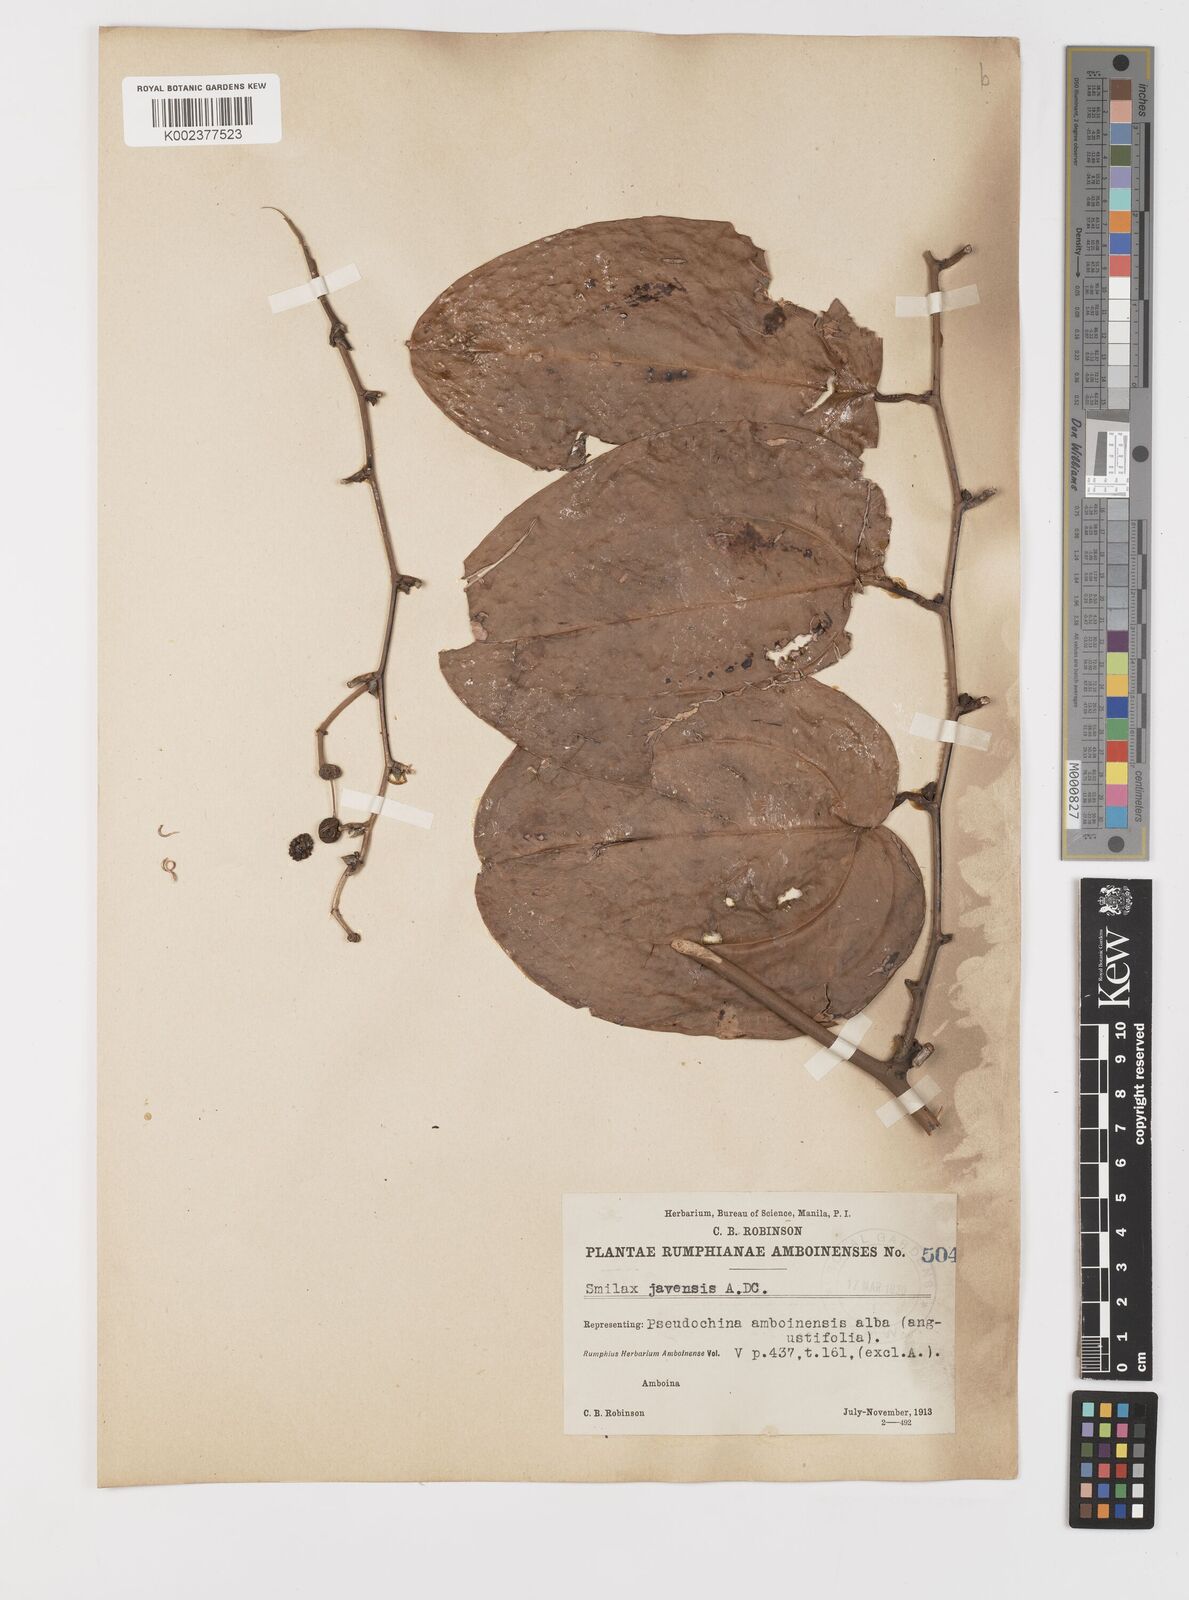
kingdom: Plantae
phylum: Tracheophyta
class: Liliopsida
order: Liliales
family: Smilacaceae
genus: Smilax
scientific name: Smilax javensis
